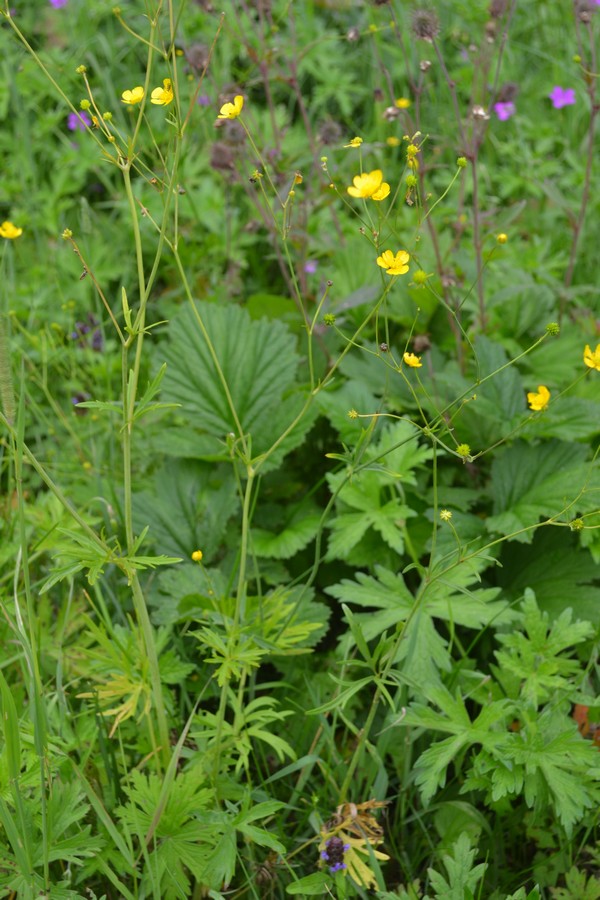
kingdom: Plantae
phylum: Tracheophyta
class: Magnoliopsida
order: Ranunculales
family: Ranunculaceae
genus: Ranunculus
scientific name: Ranunculus repens
